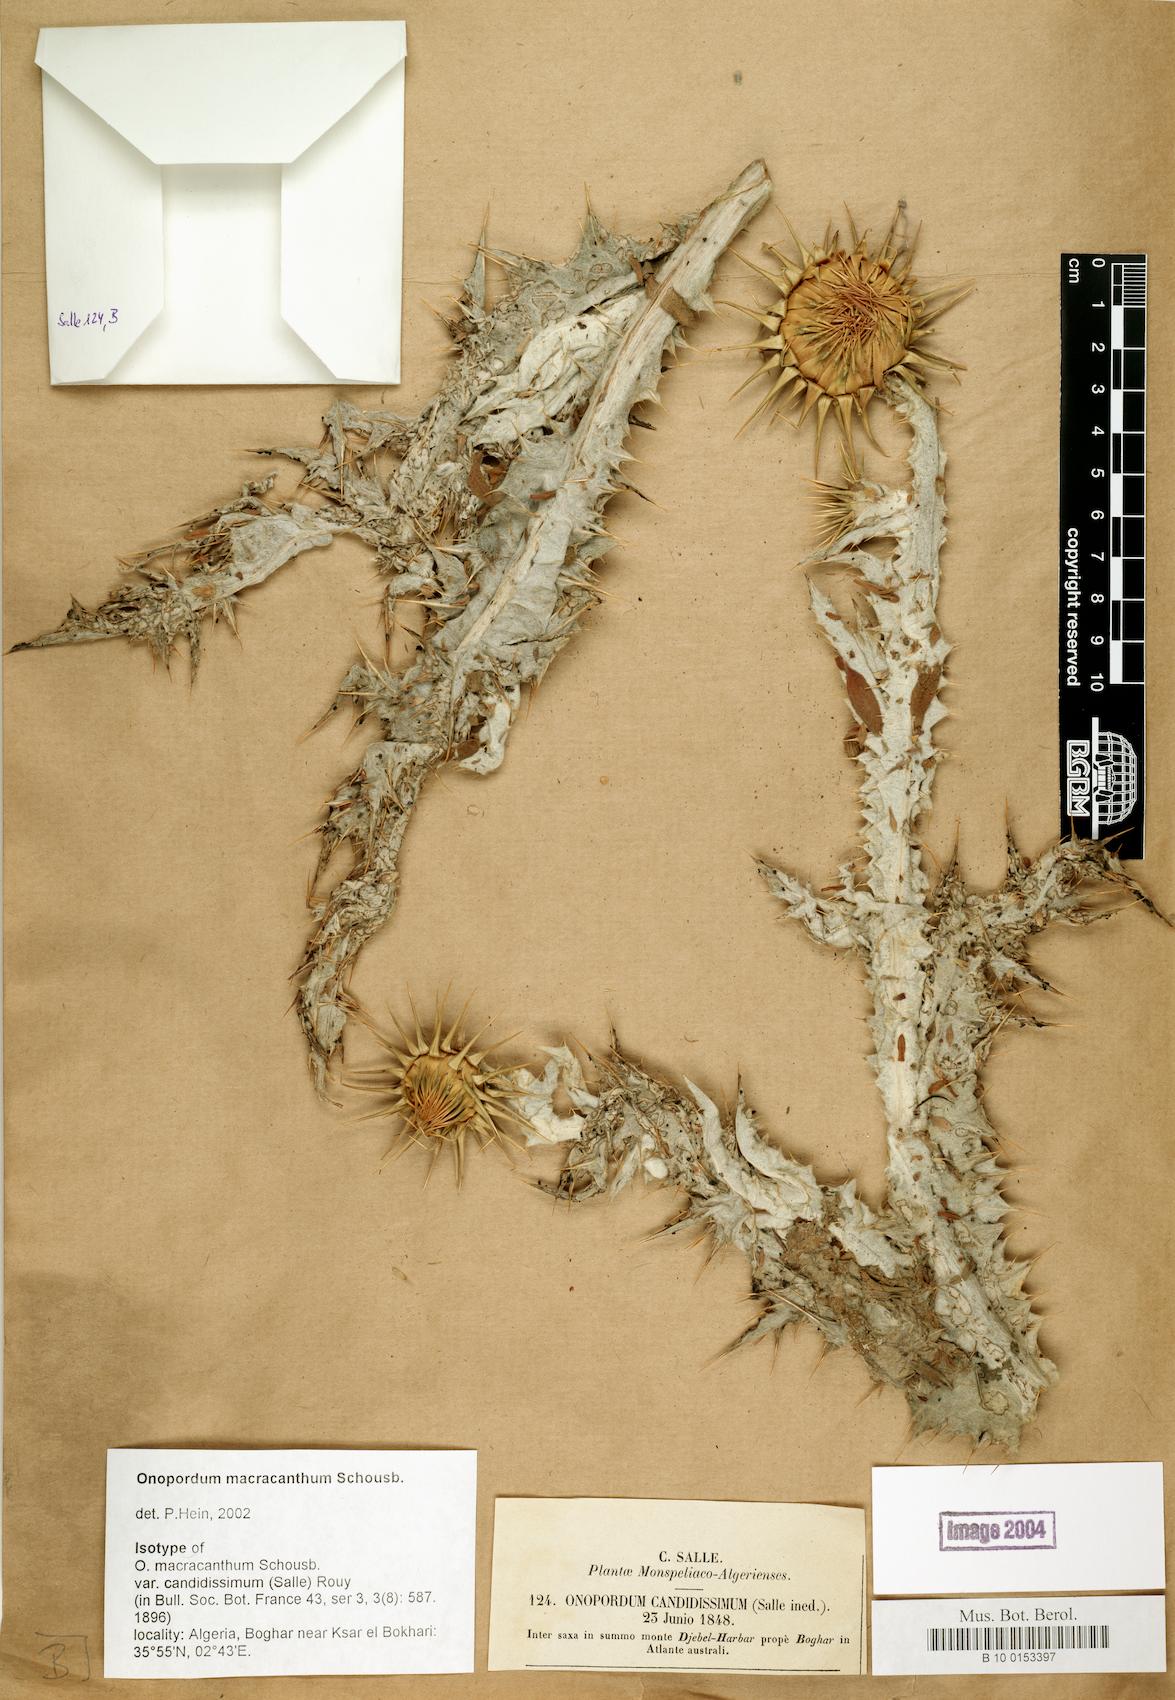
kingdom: Plantae
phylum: Tracheophyta
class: Magnoliopsida
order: Asterales
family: Asteraceae
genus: Onopordum
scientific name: Onopordum macracanthum
